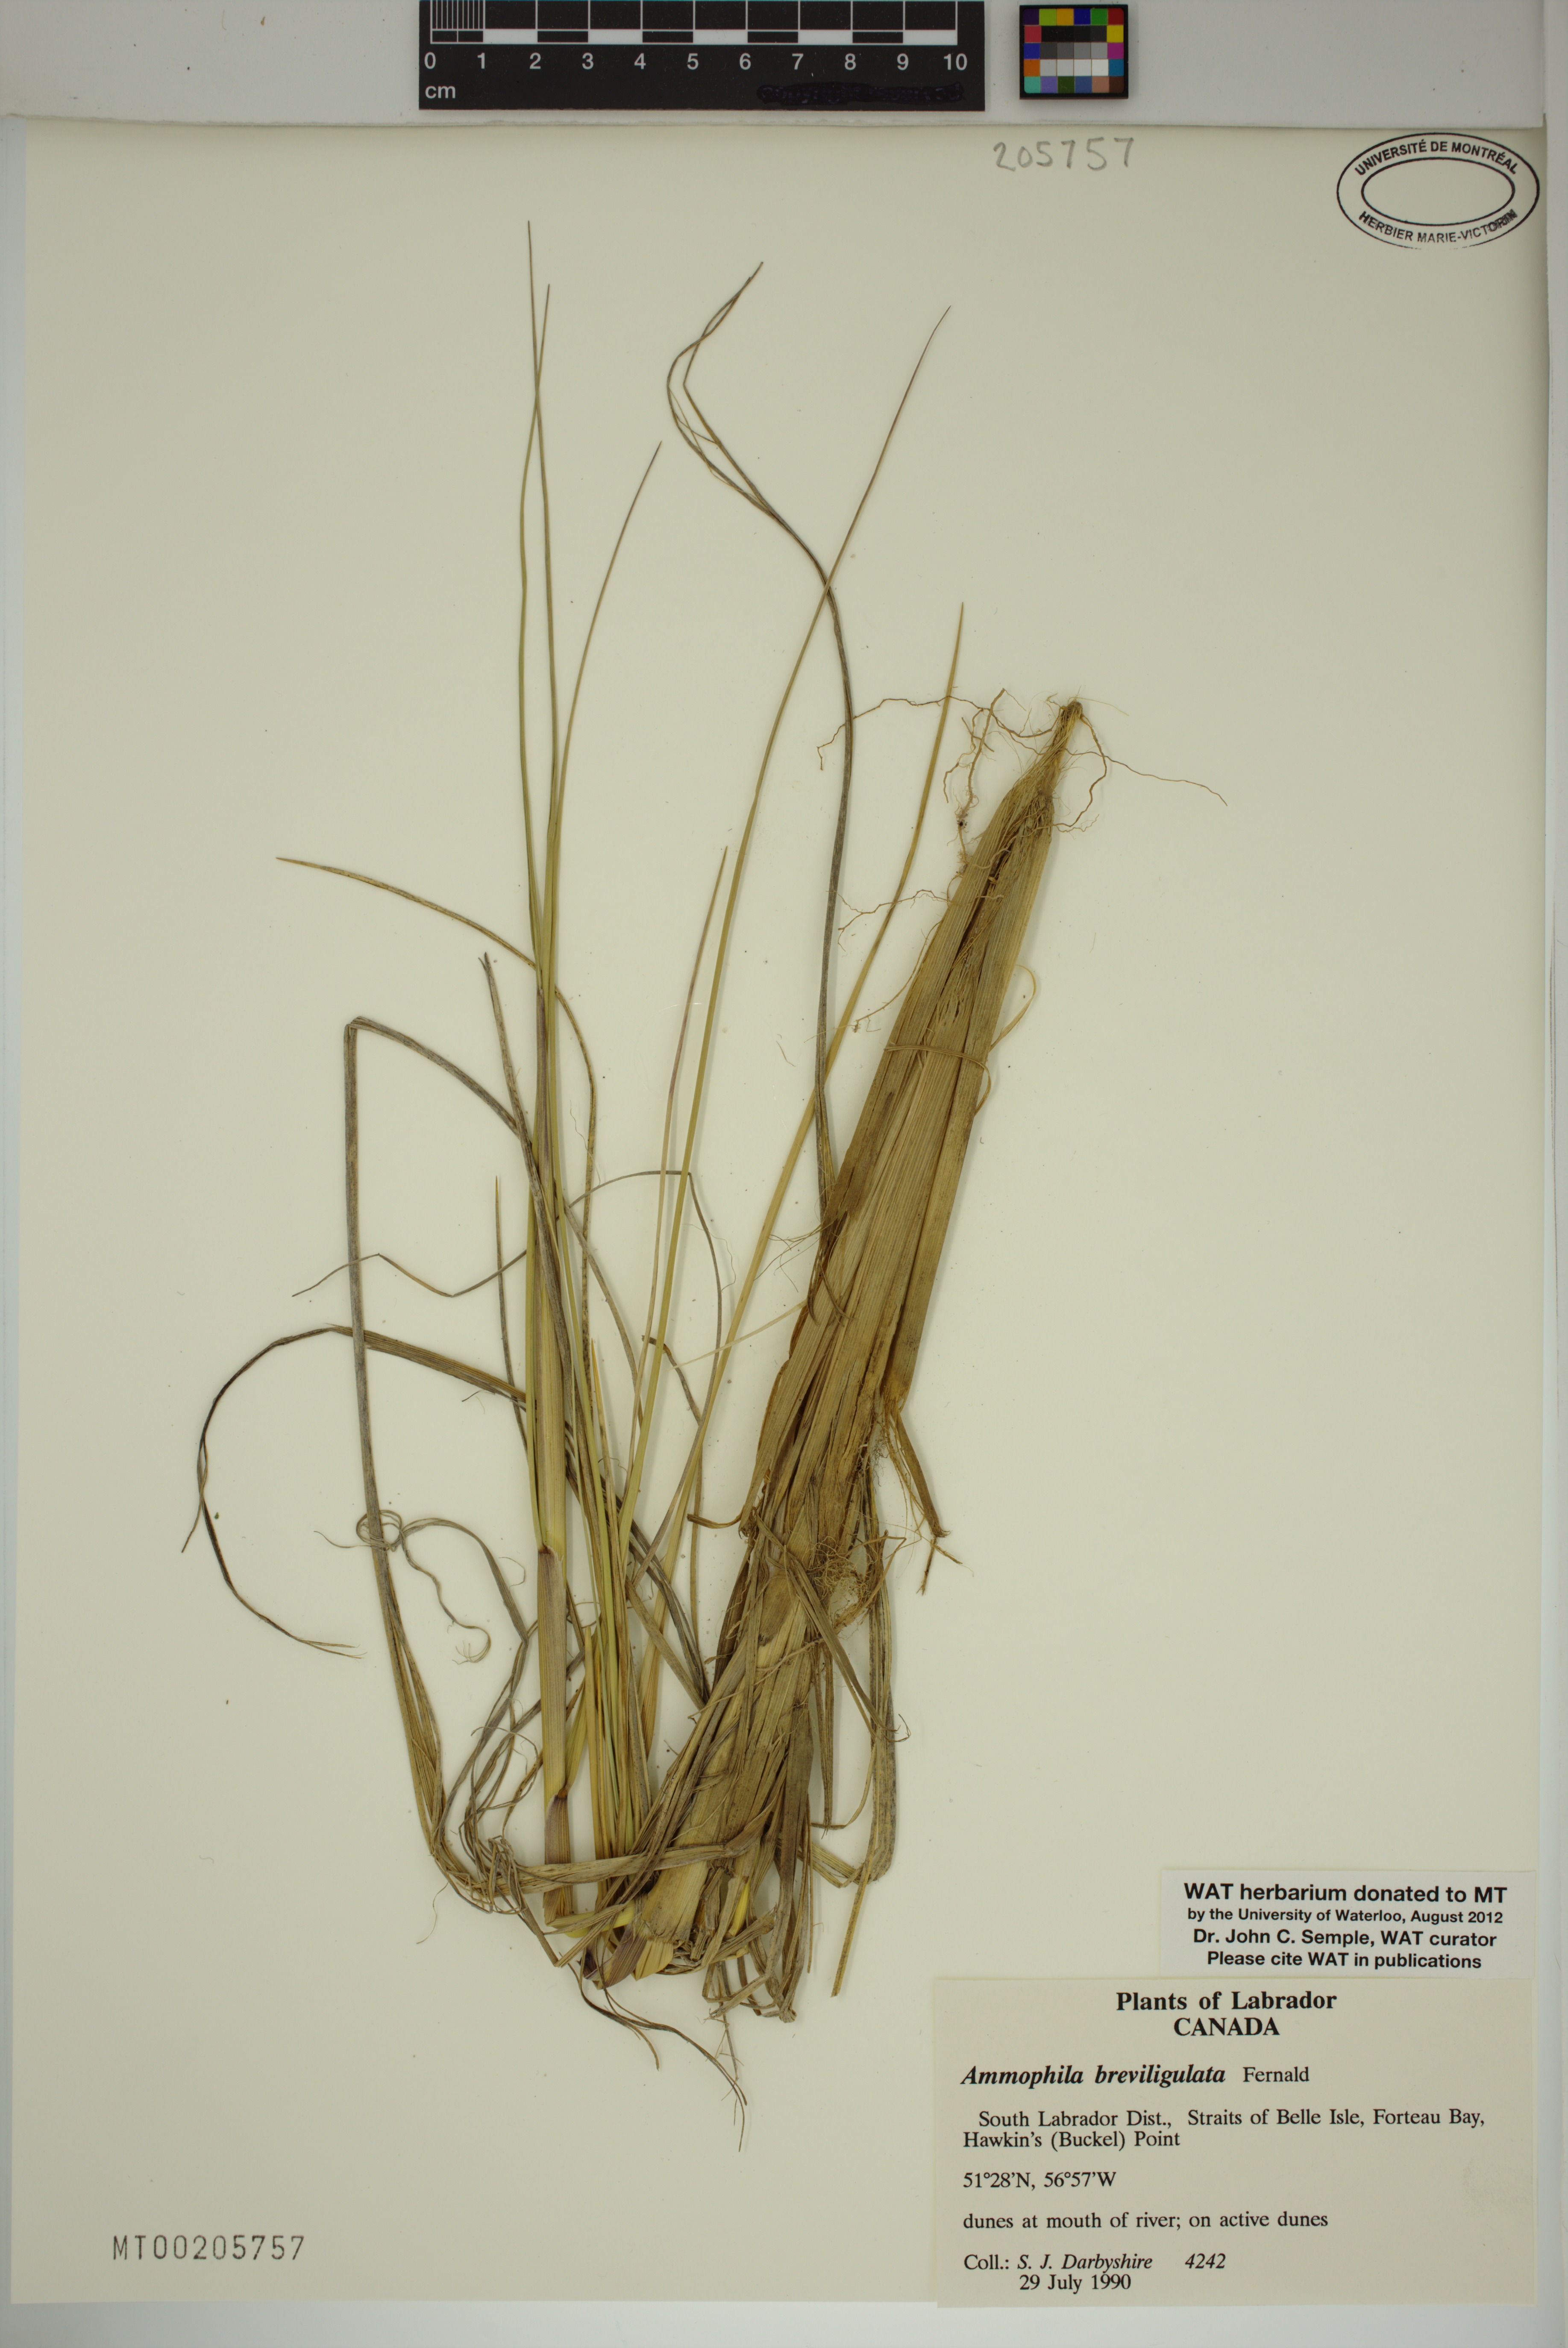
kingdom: Plantae
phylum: Tracheophyta
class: Liliopsida
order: Poales
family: Poaceae
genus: Calamagrostis
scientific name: Calamagrostis breviligulata
